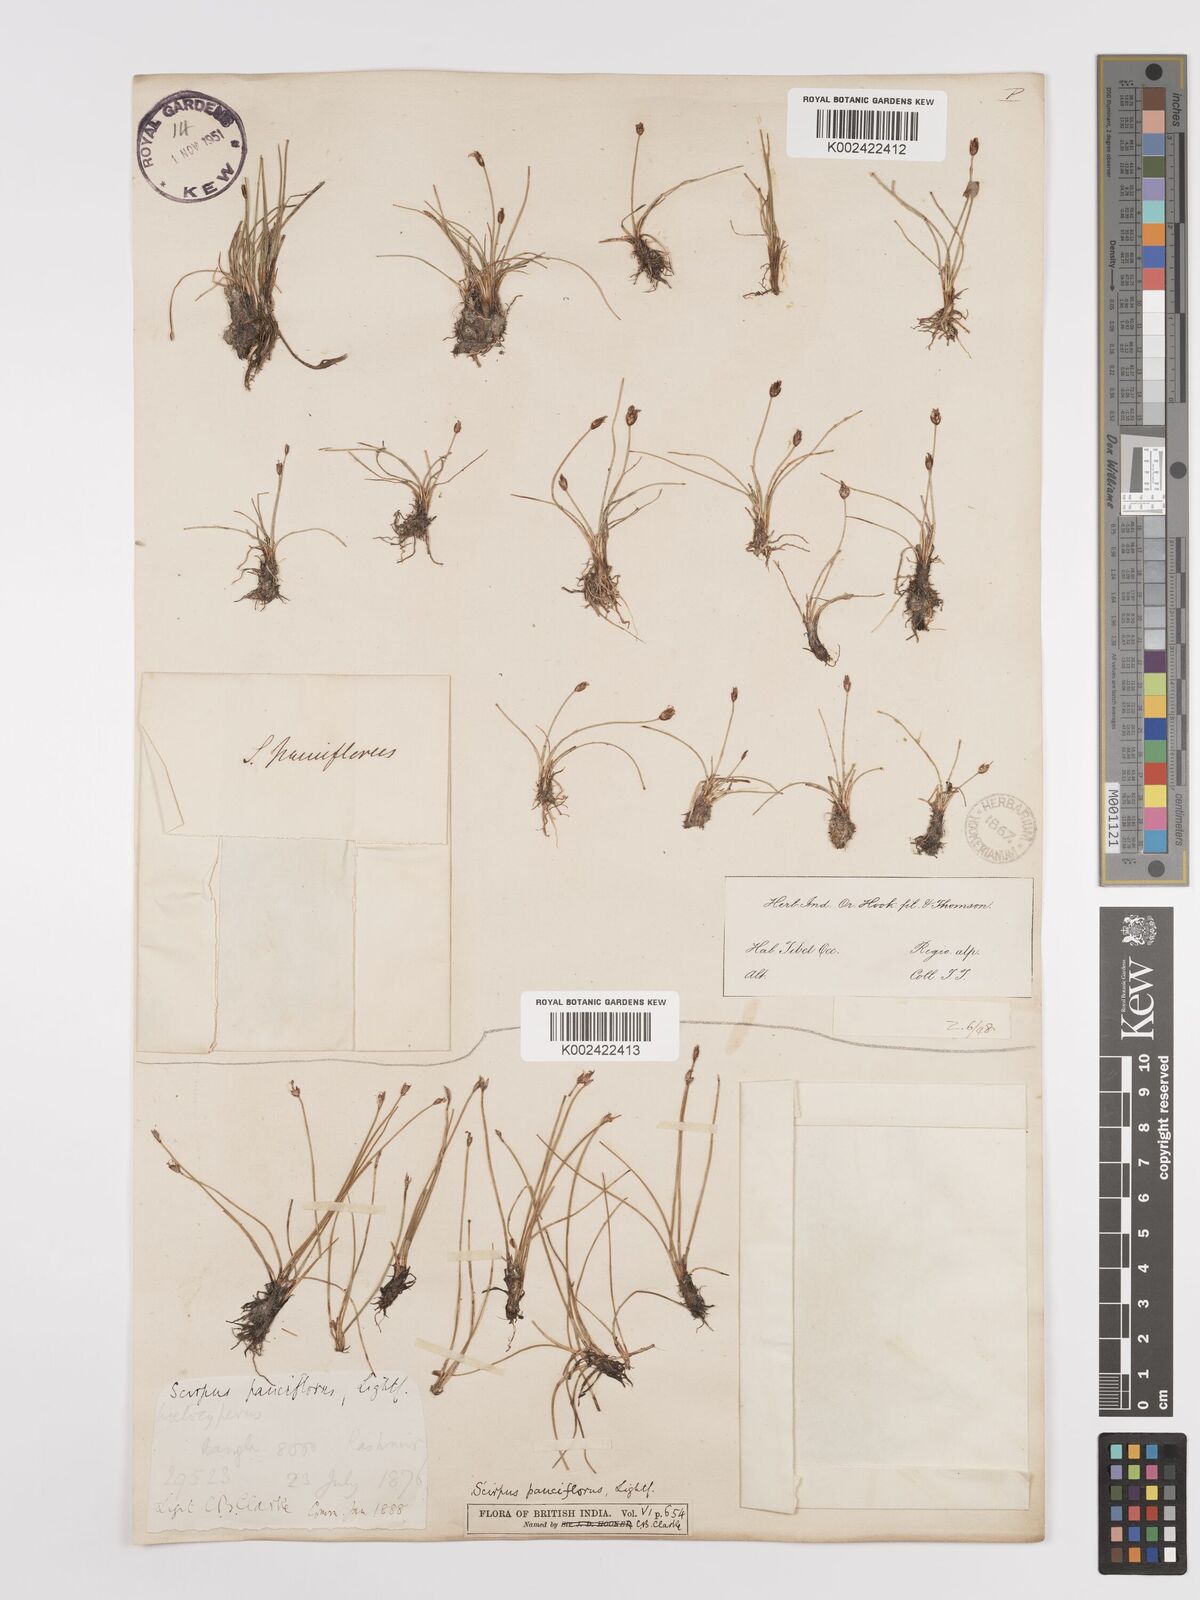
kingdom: Plantae
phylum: Tracheophyta
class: Liliopsida
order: Poales
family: Cyperaceae
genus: Eleocharis
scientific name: Eleocharis quinqueflora
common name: Few-flowered spike-rush
